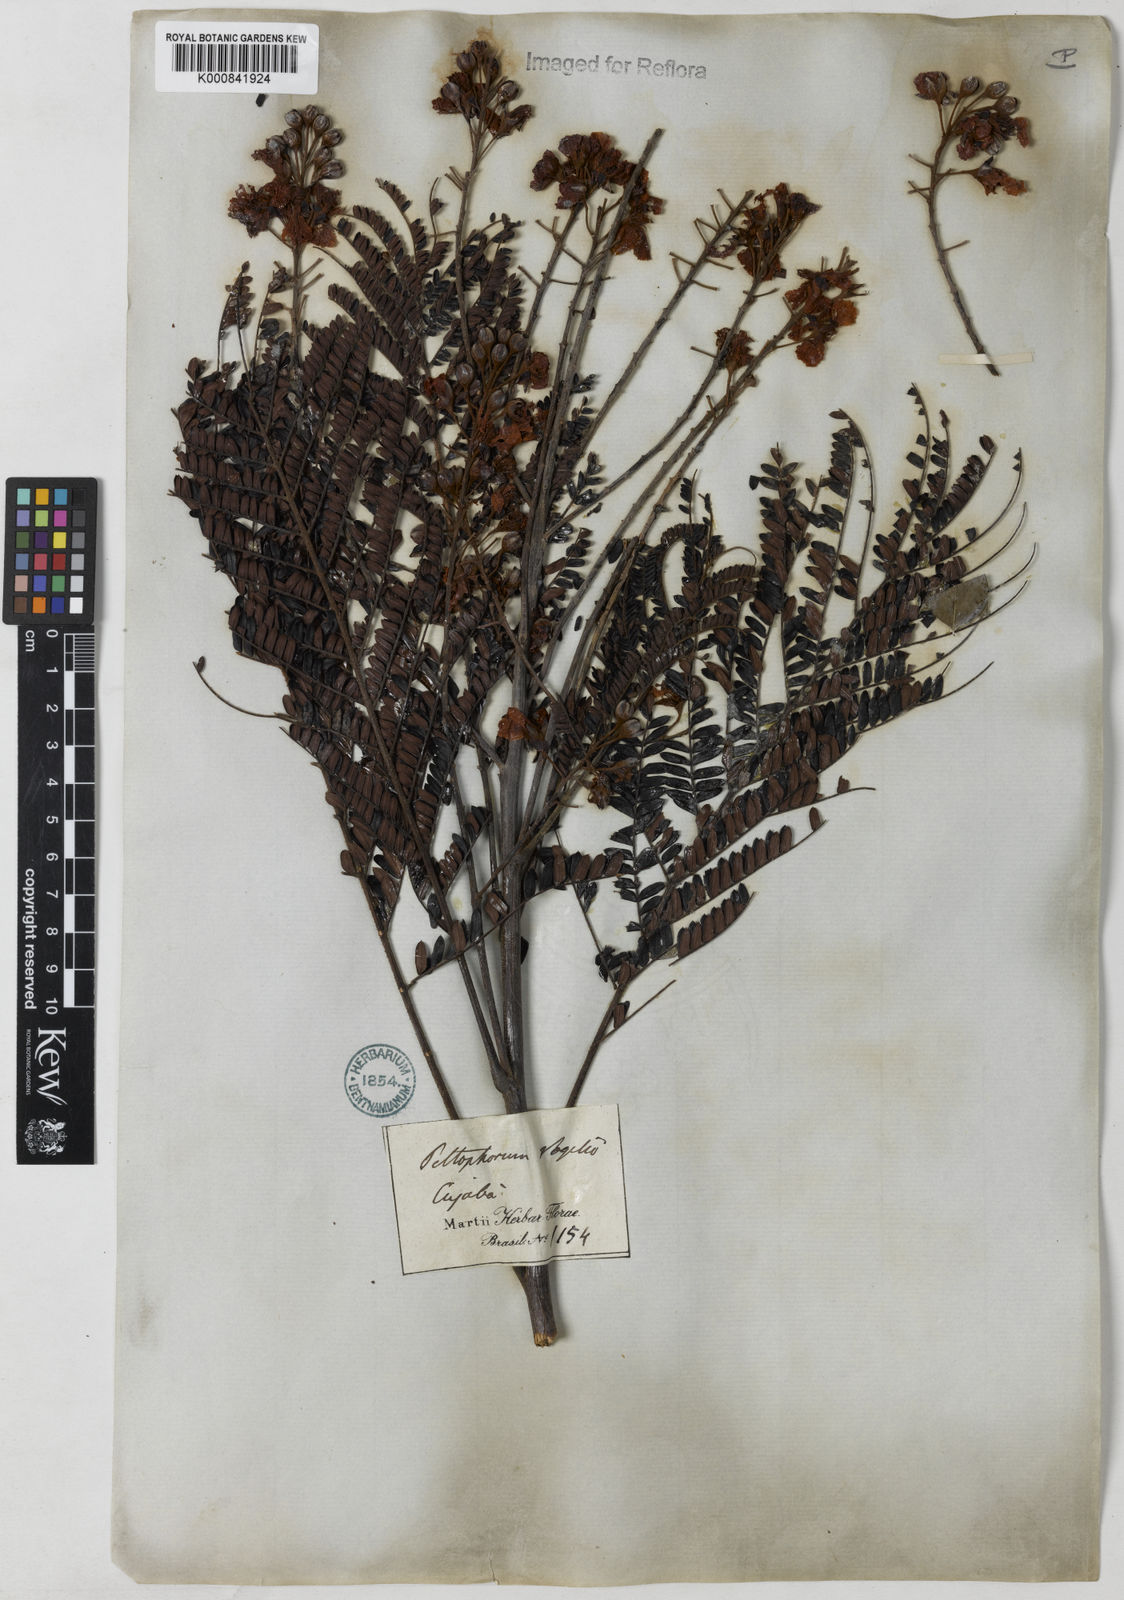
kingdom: Plantae
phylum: Tracheophyta
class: Magnoliopsida
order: Fabales
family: Fabaceae
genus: Peltophorum
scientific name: Peltophorum dubium
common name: Horsebush
